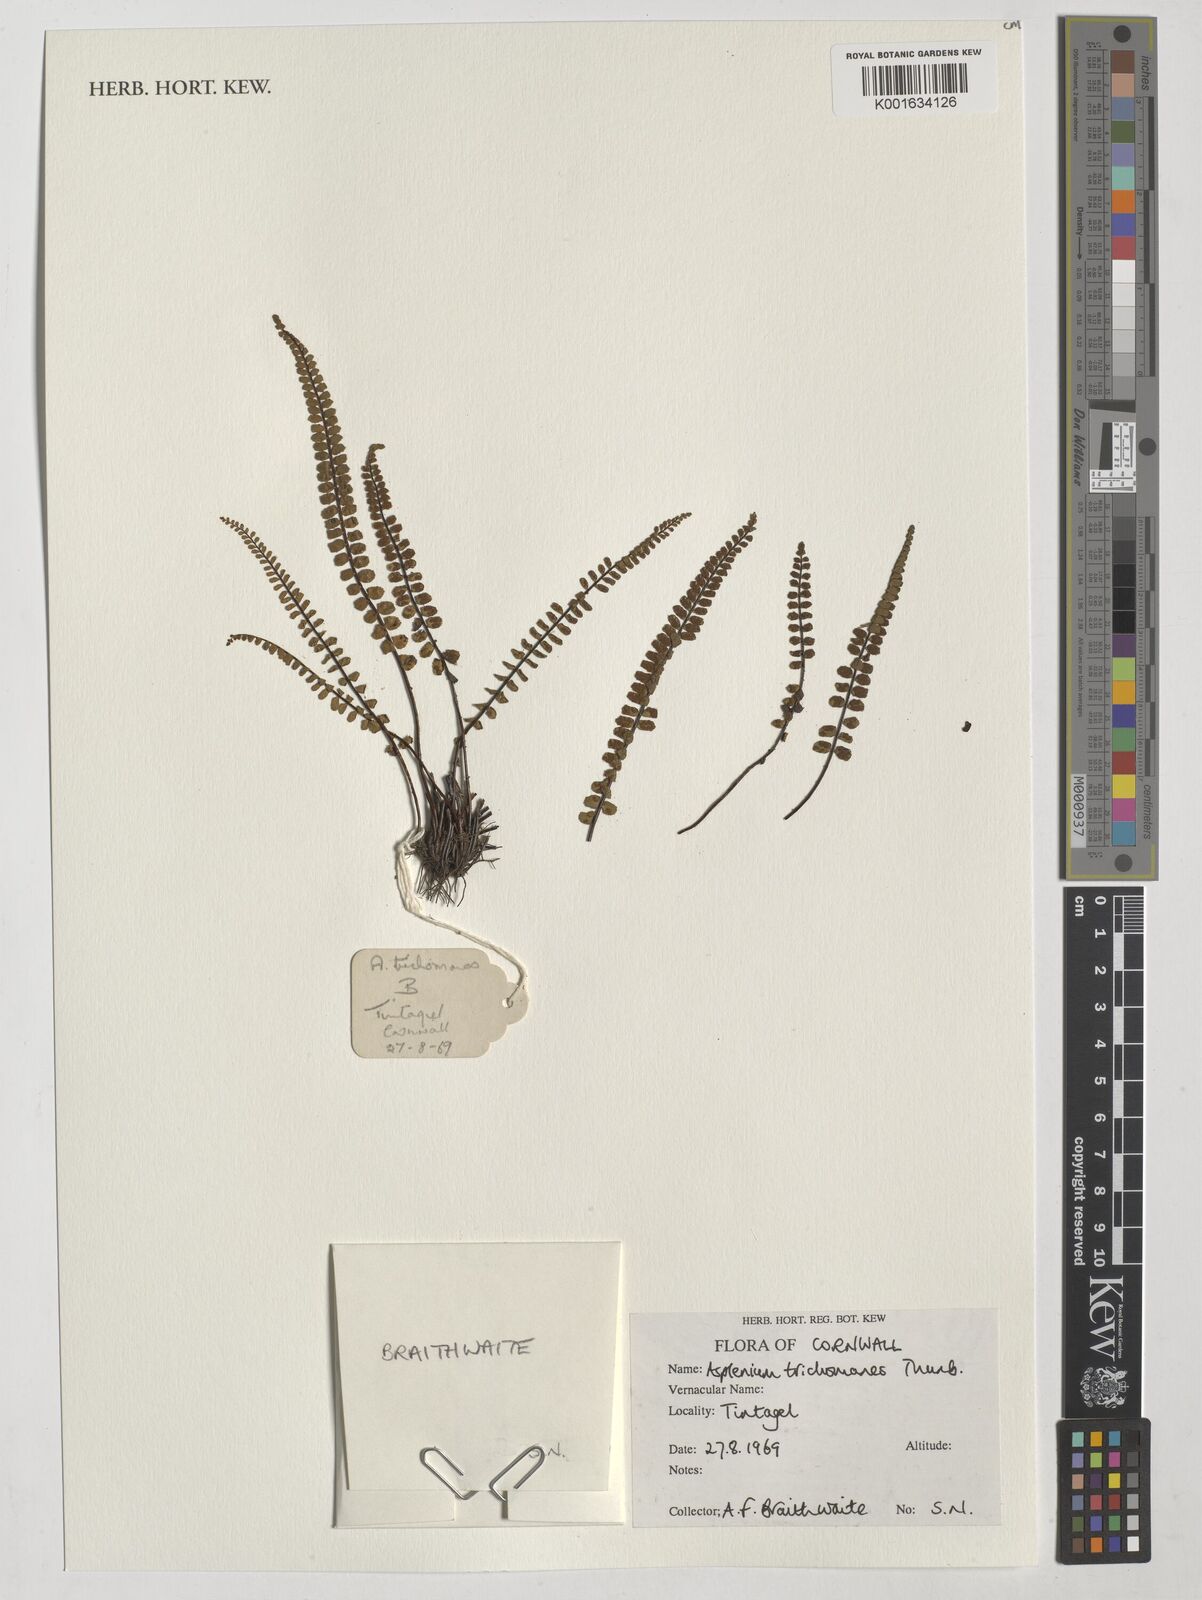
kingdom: Plantae
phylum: Tracheophyta
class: Polypodiopsida
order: Polypodiales
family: Aspleniaceae
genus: Asplenium
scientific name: Asplenium incisum
